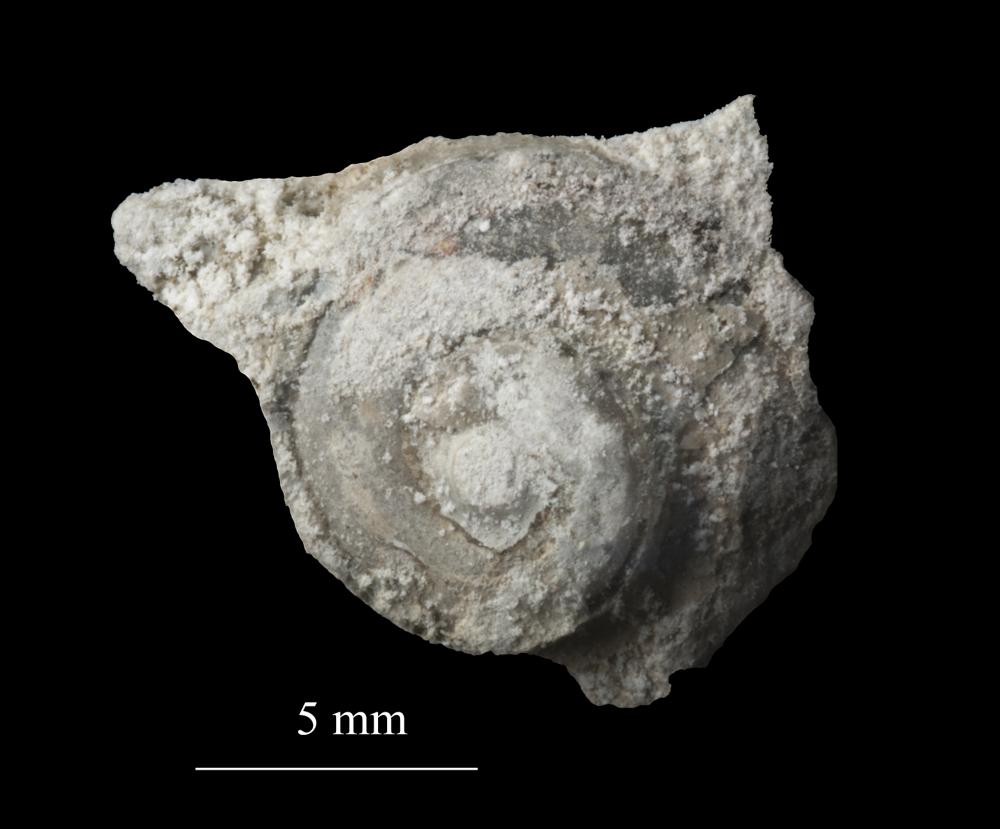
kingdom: Animalia
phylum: Mollusca
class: Gastropoda
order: Neogastropoda
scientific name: Neogastropoda
